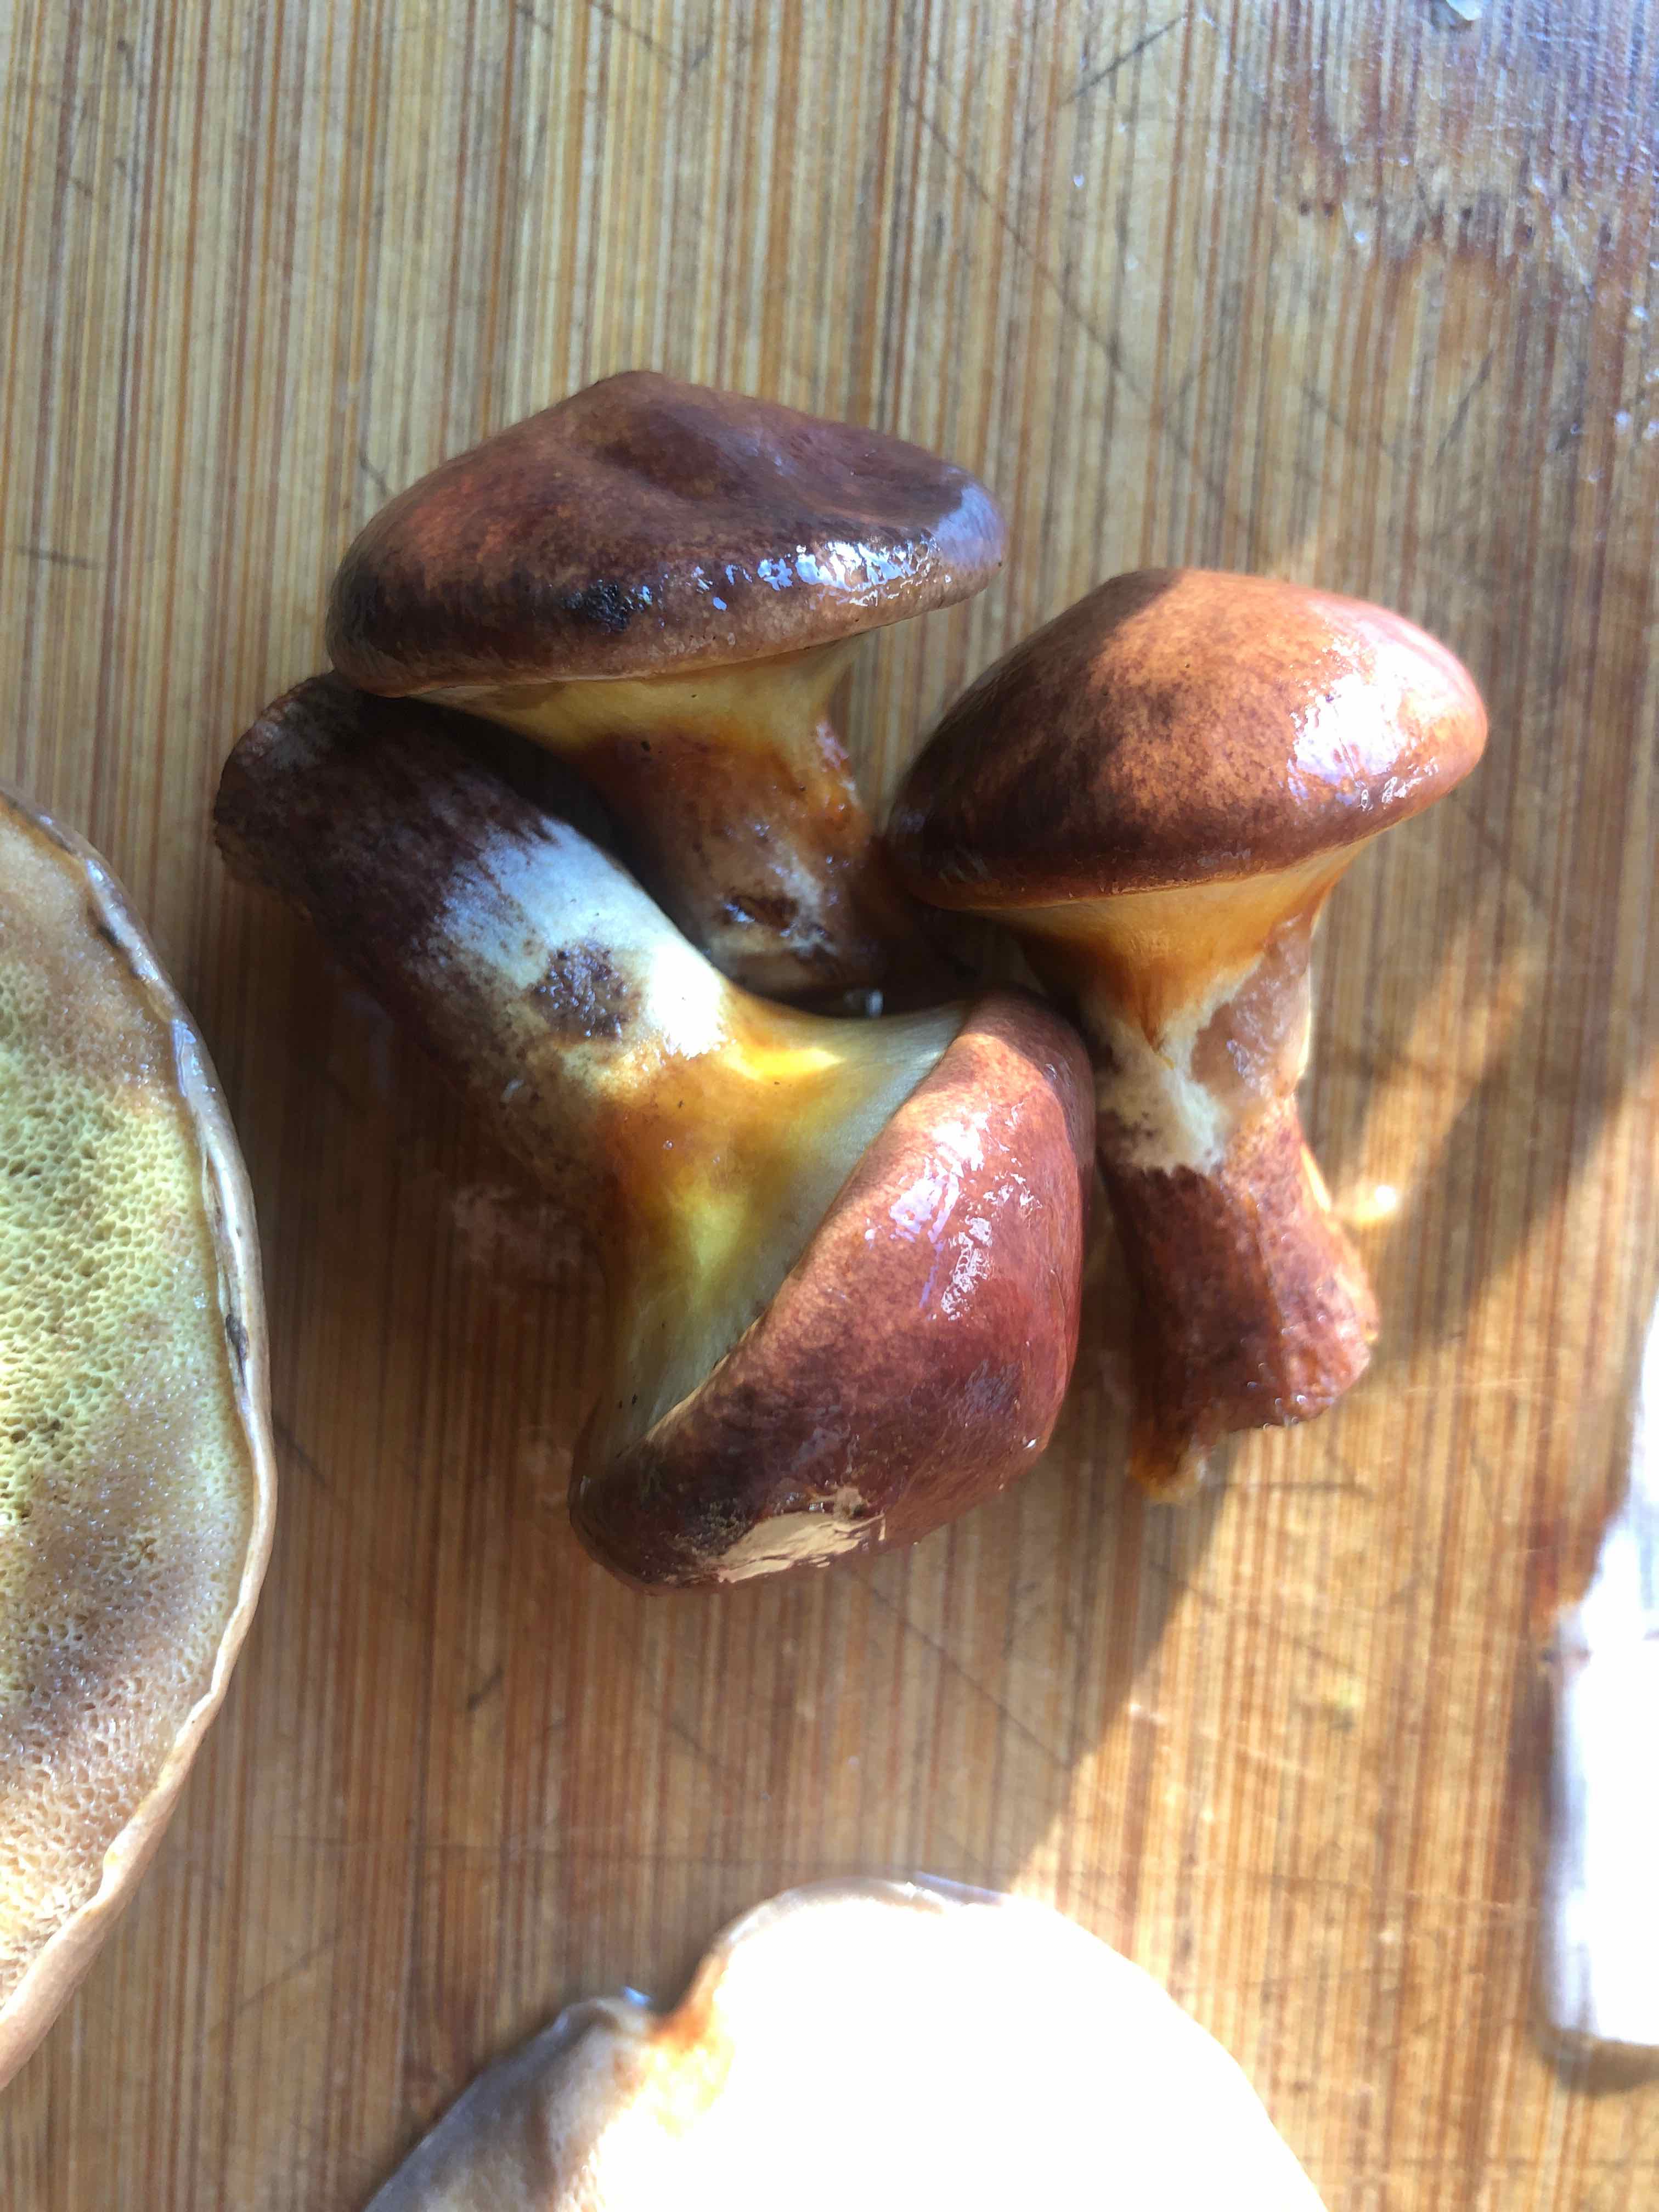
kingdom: Fungi
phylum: Basidiomycota
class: Agaricomycetes
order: Boletales
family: Suillaceae
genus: Suillus
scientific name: Suillus grevillei
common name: lærke-slimrørhat
